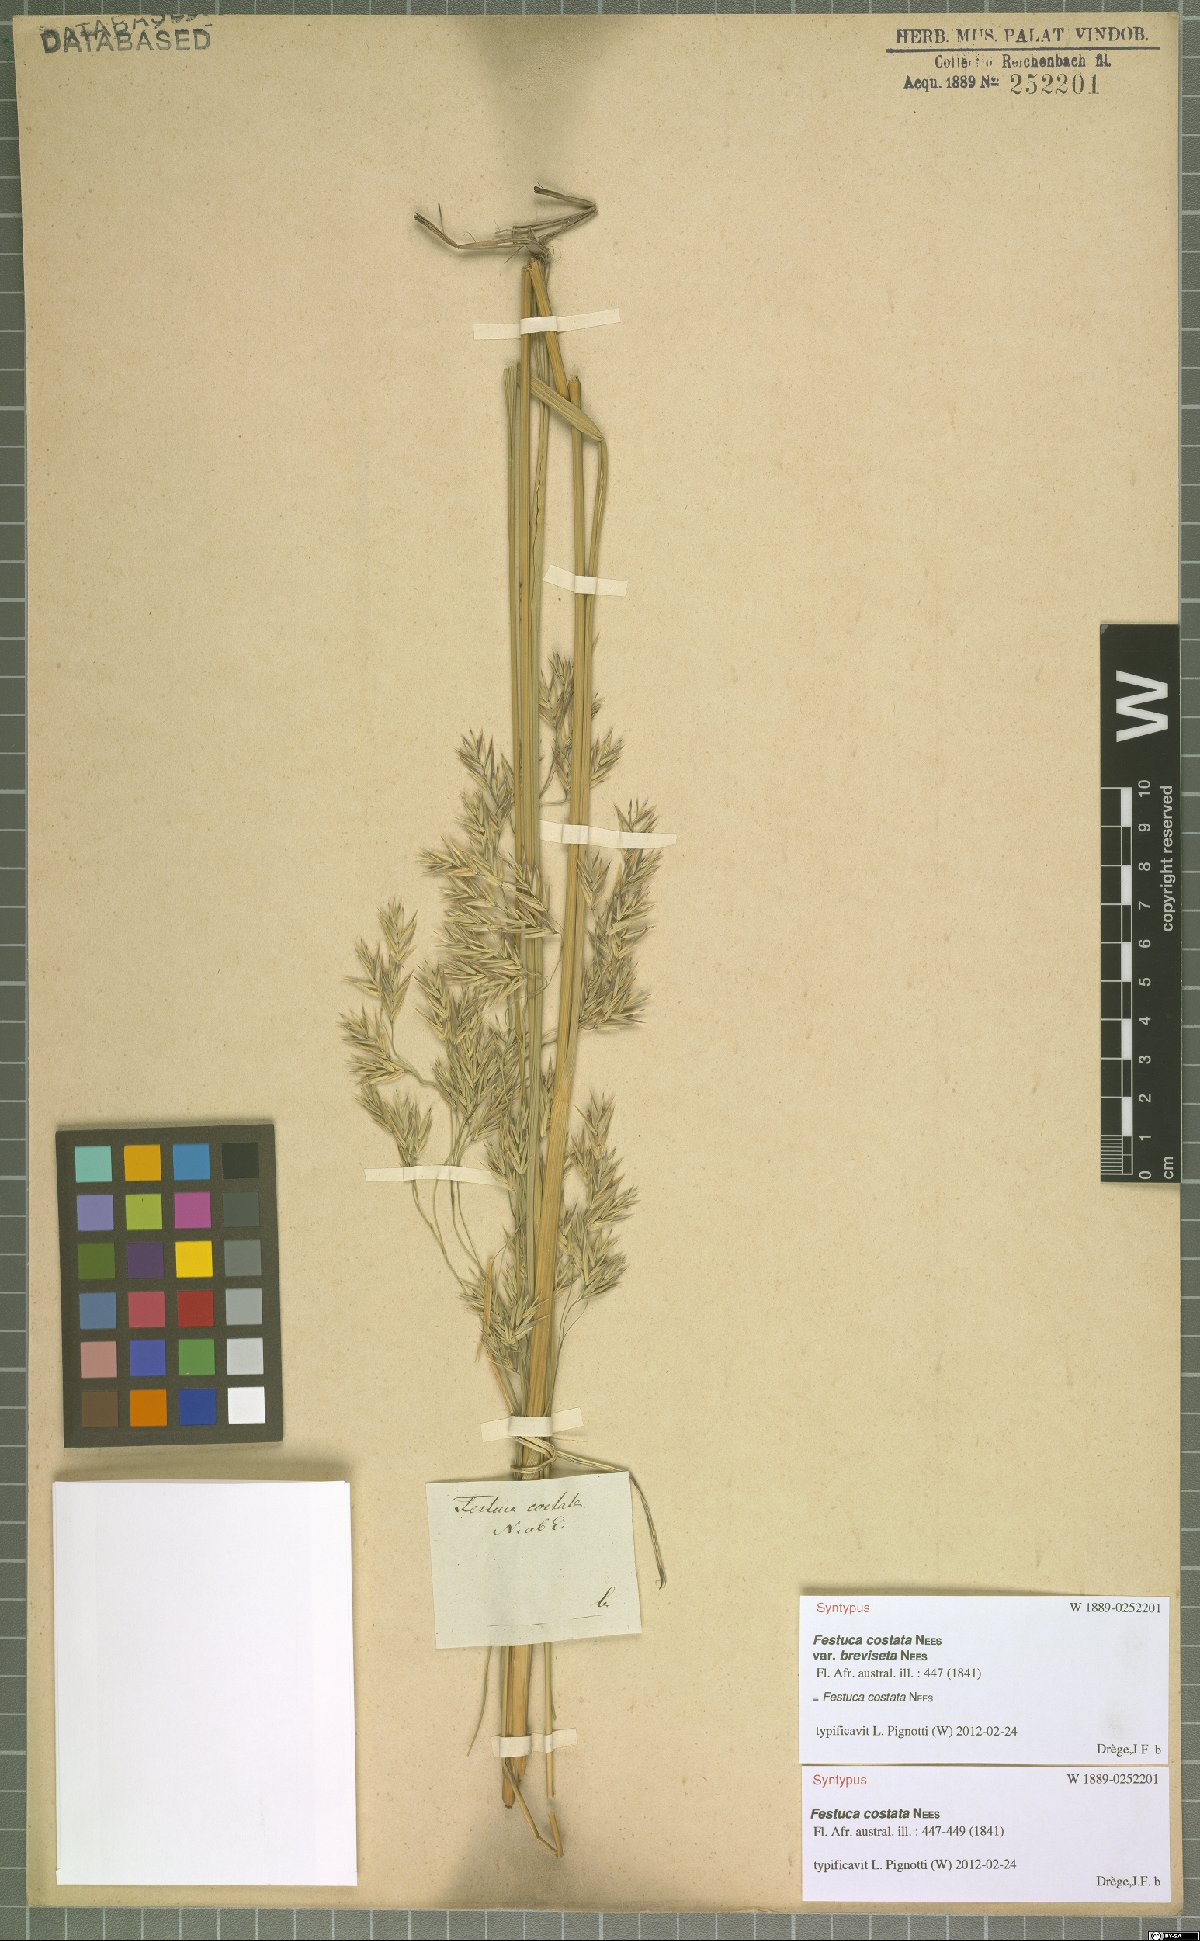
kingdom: Plantae
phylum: Tracheophyta
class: Liliopsida
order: Poales
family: Poaceae
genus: Festuca
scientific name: Festuca costata
